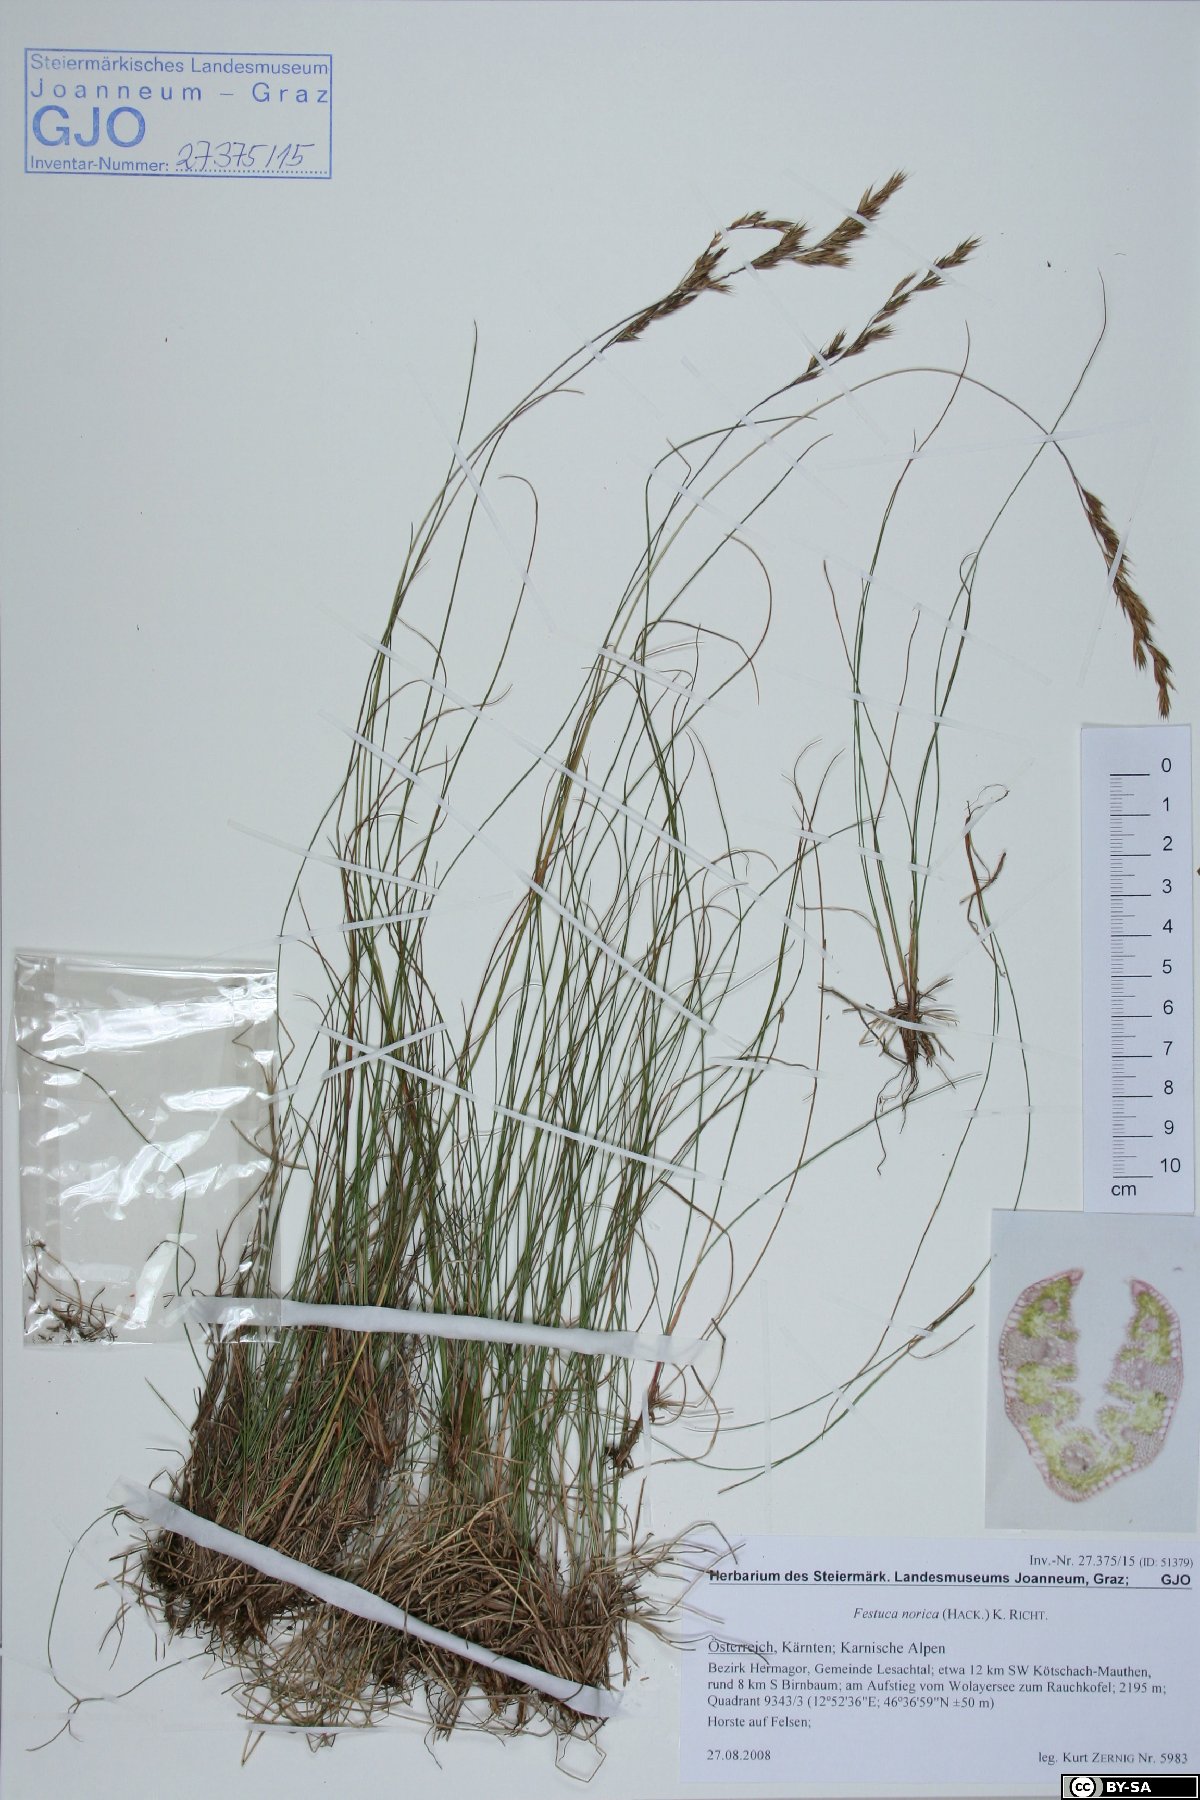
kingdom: Plantae
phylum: Tracheophyta
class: Liliopsida
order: Poales
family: Poaceae
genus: Festuca
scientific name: Festuca norica
